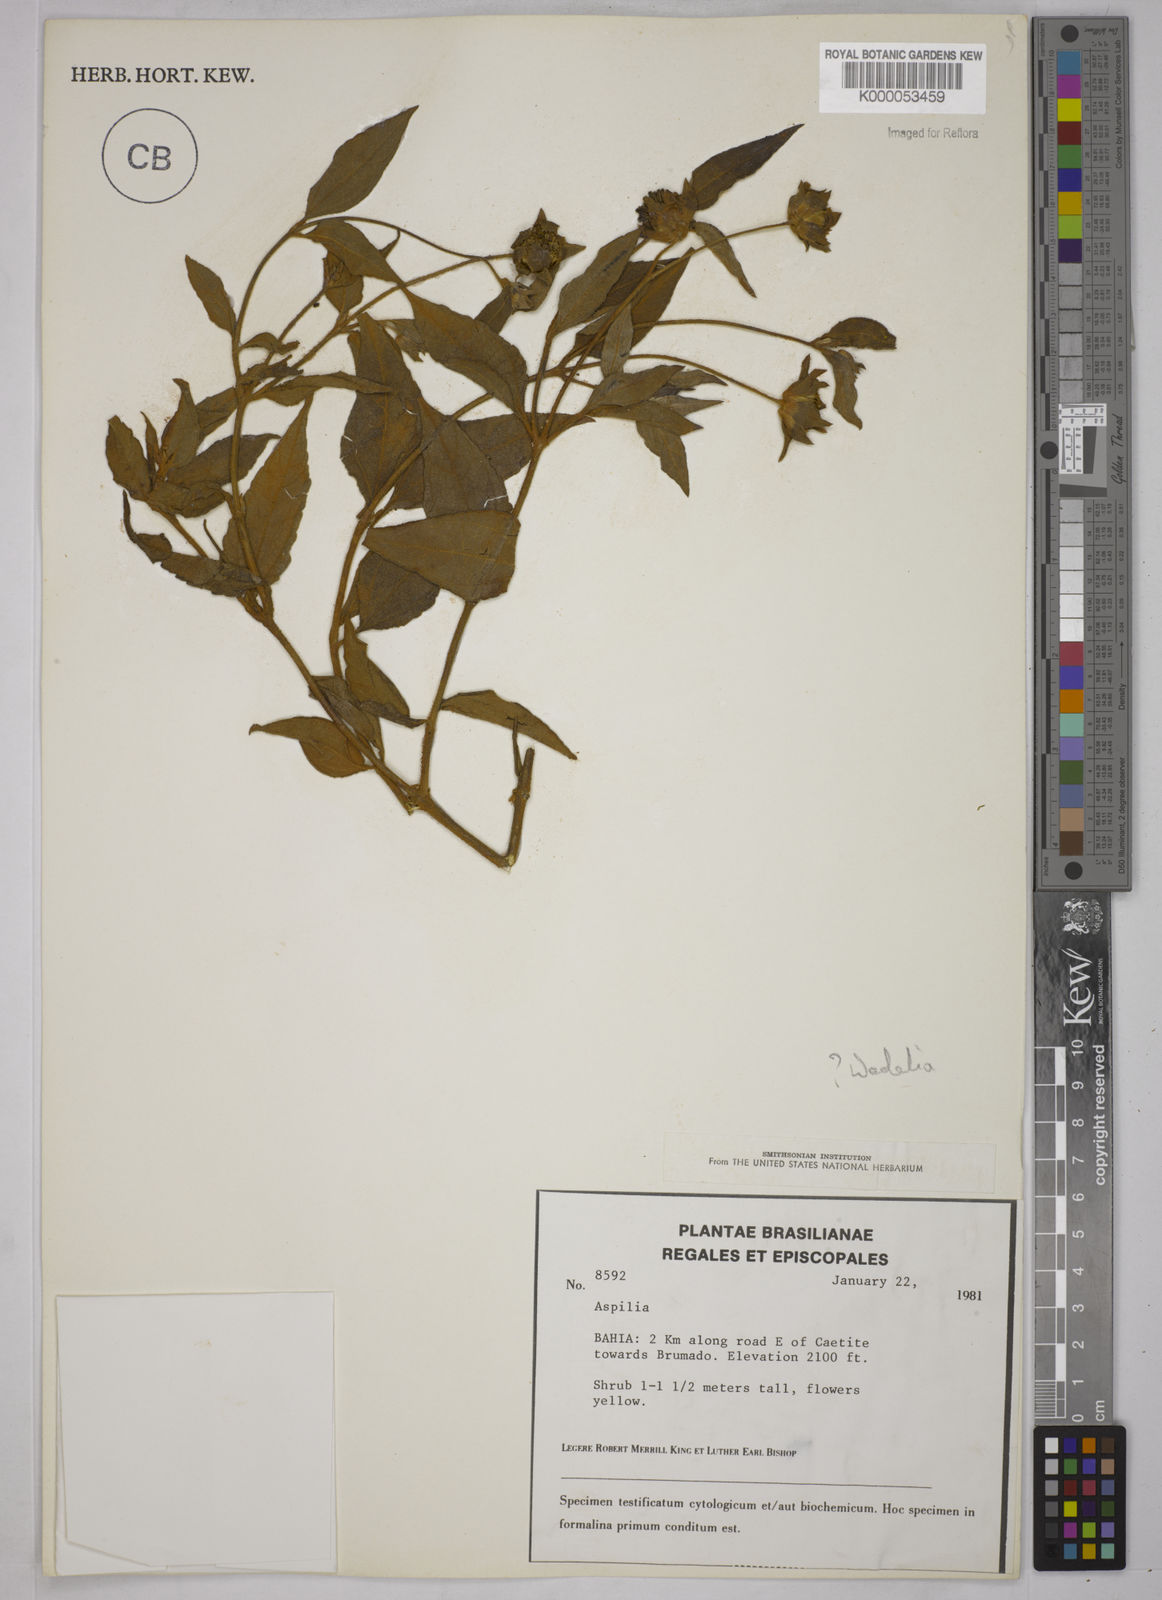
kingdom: Plantae
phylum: Tracheophyta
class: Magnoliopsida
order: Asterales
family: Asteraceae
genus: Aspilia
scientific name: Aspilia
